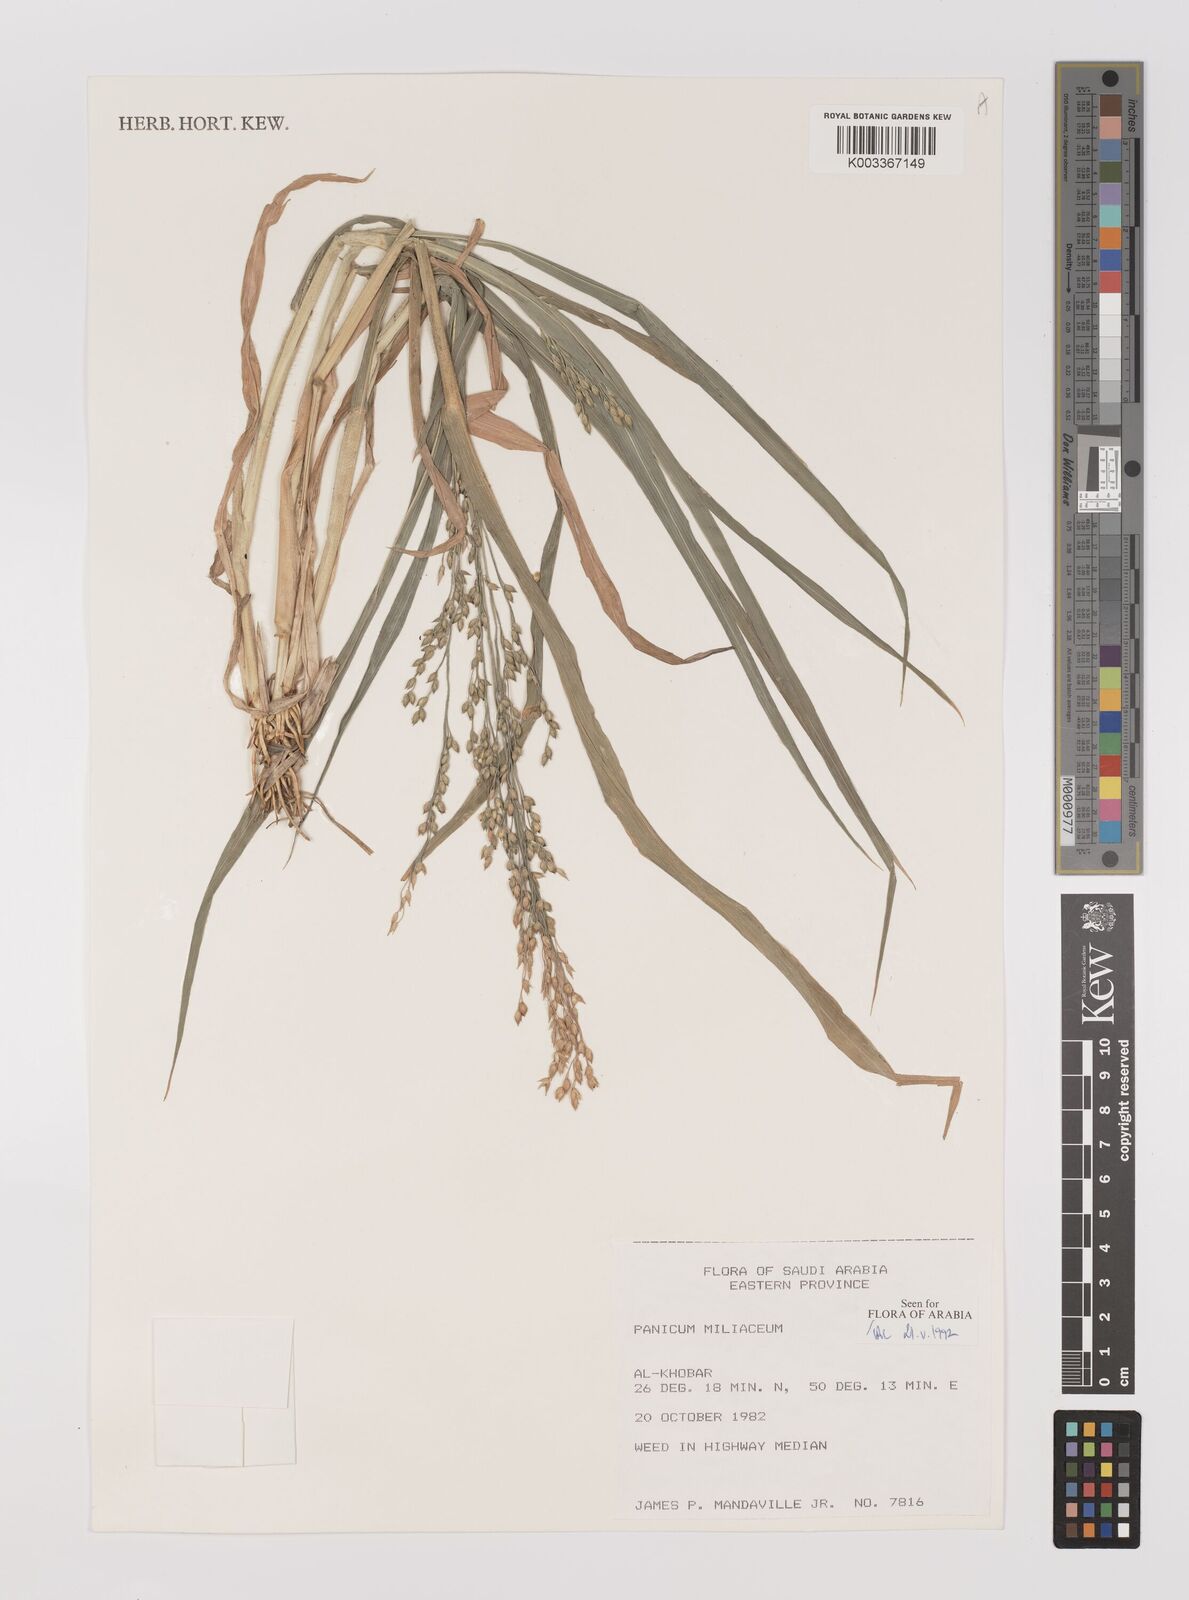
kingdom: Plantae
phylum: Tracheophyta
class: Liliopsida
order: Poales
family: Poaceae
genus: Panicum
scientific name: Panicum miliaceum
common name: Common millet
